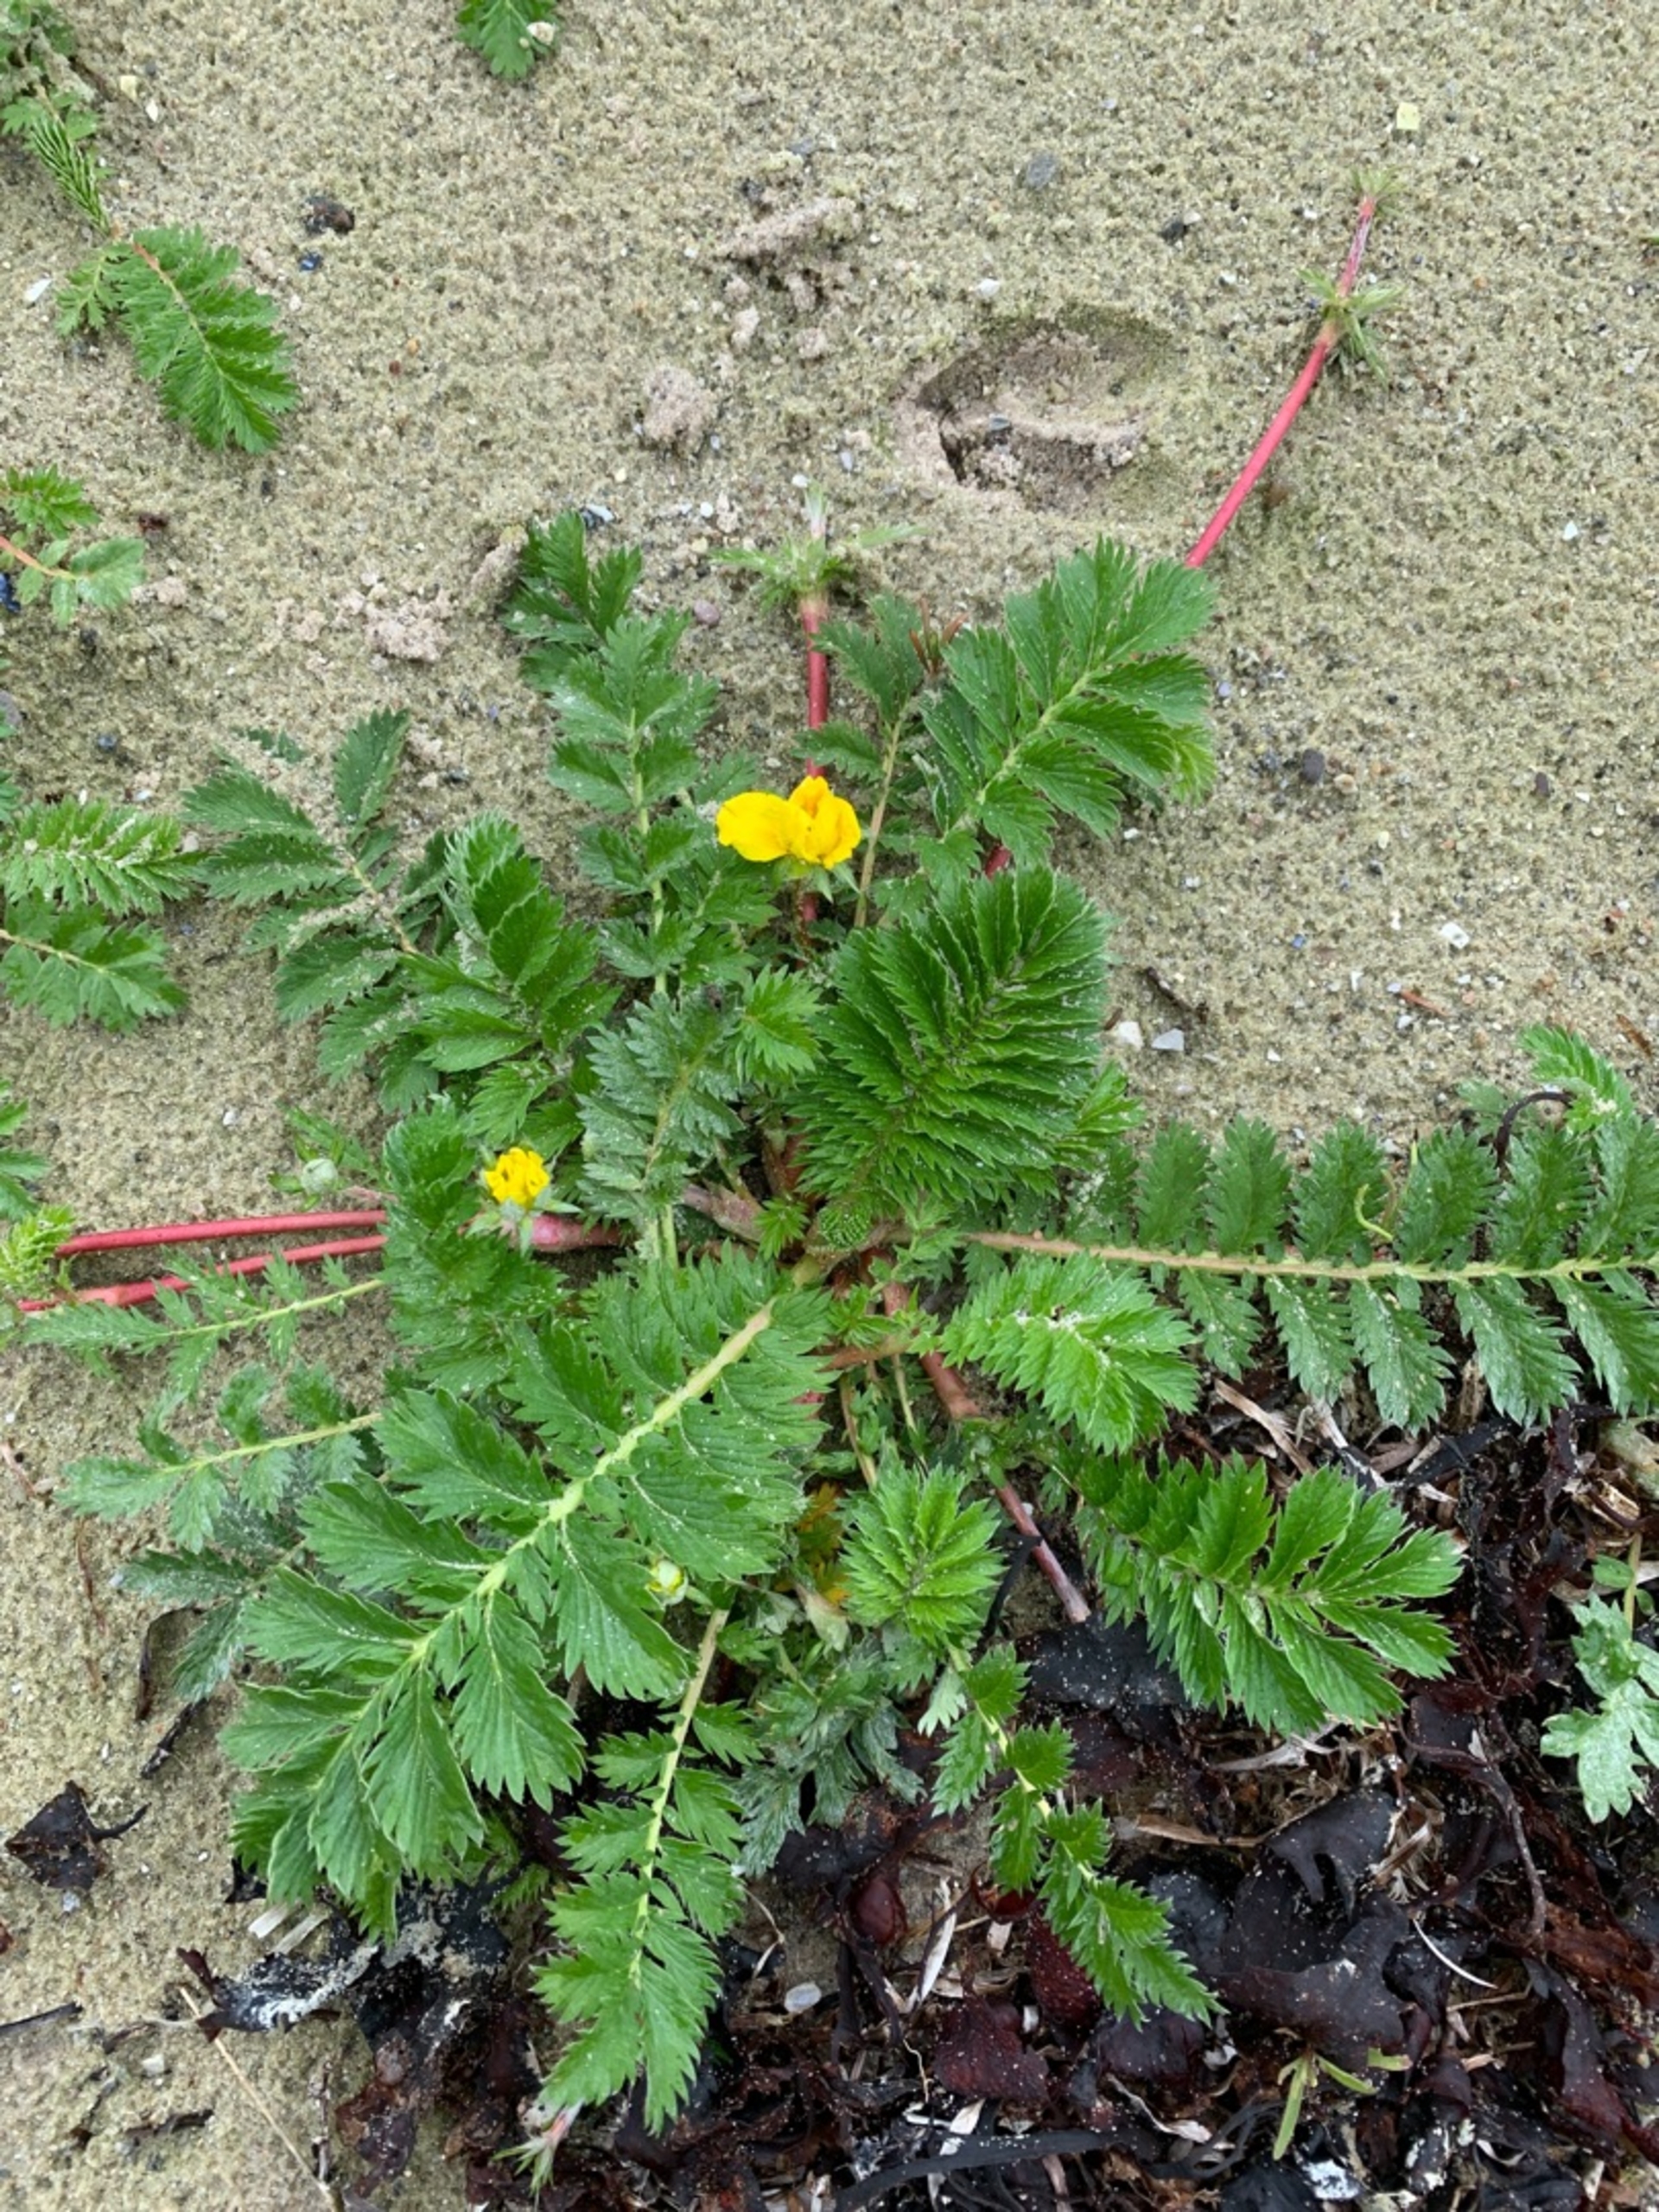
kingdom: Plantae
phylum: Tracheophyta
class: Magnoliopsida
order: Rosales
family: Rosaceae
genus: Argentina
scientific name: Argentina anserina
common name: Gåsepotentil
